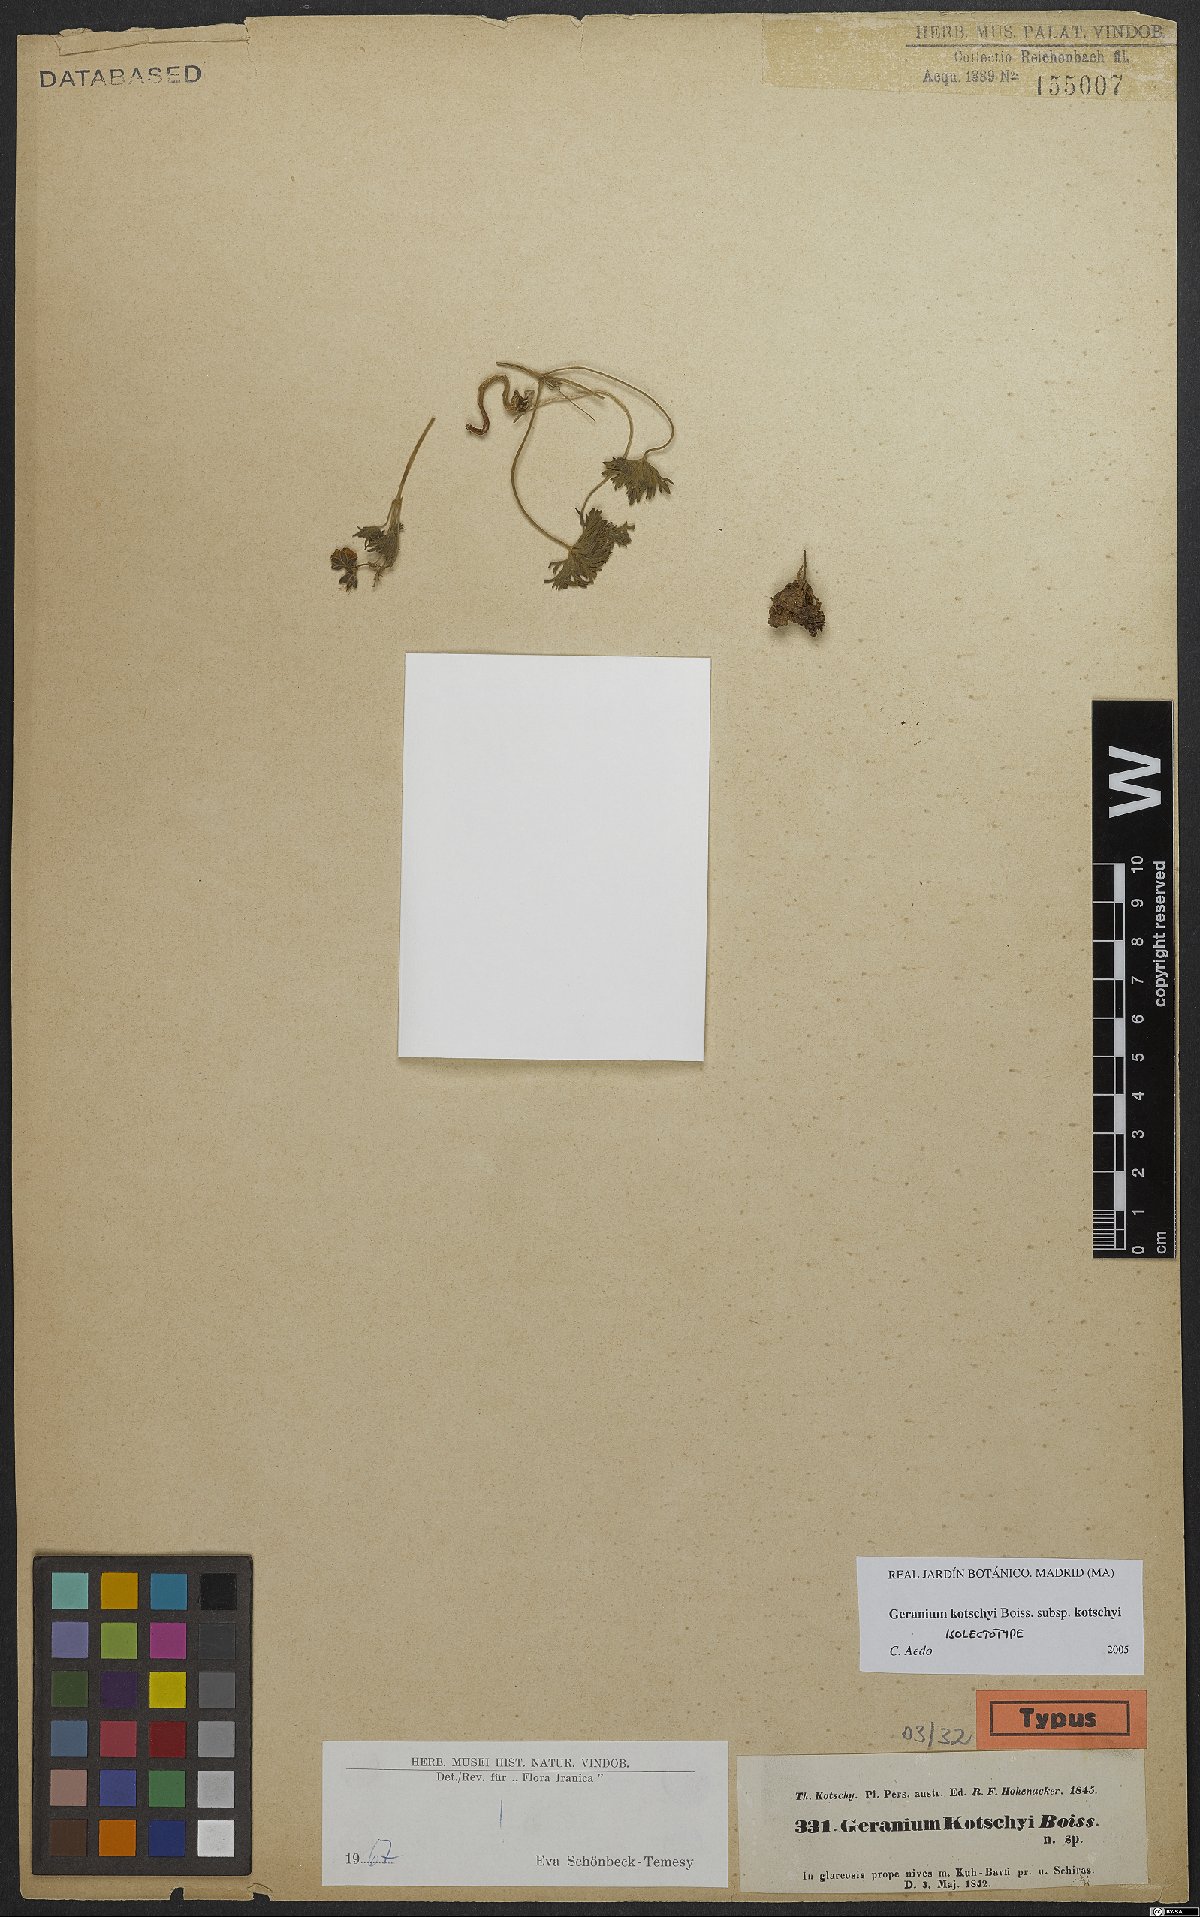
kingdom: Plantae
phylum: Tracheophyta
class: Magnoliopsida
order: Geraniales
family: Geraniaceae
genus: Geranium
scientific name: Geranium kotschyi
